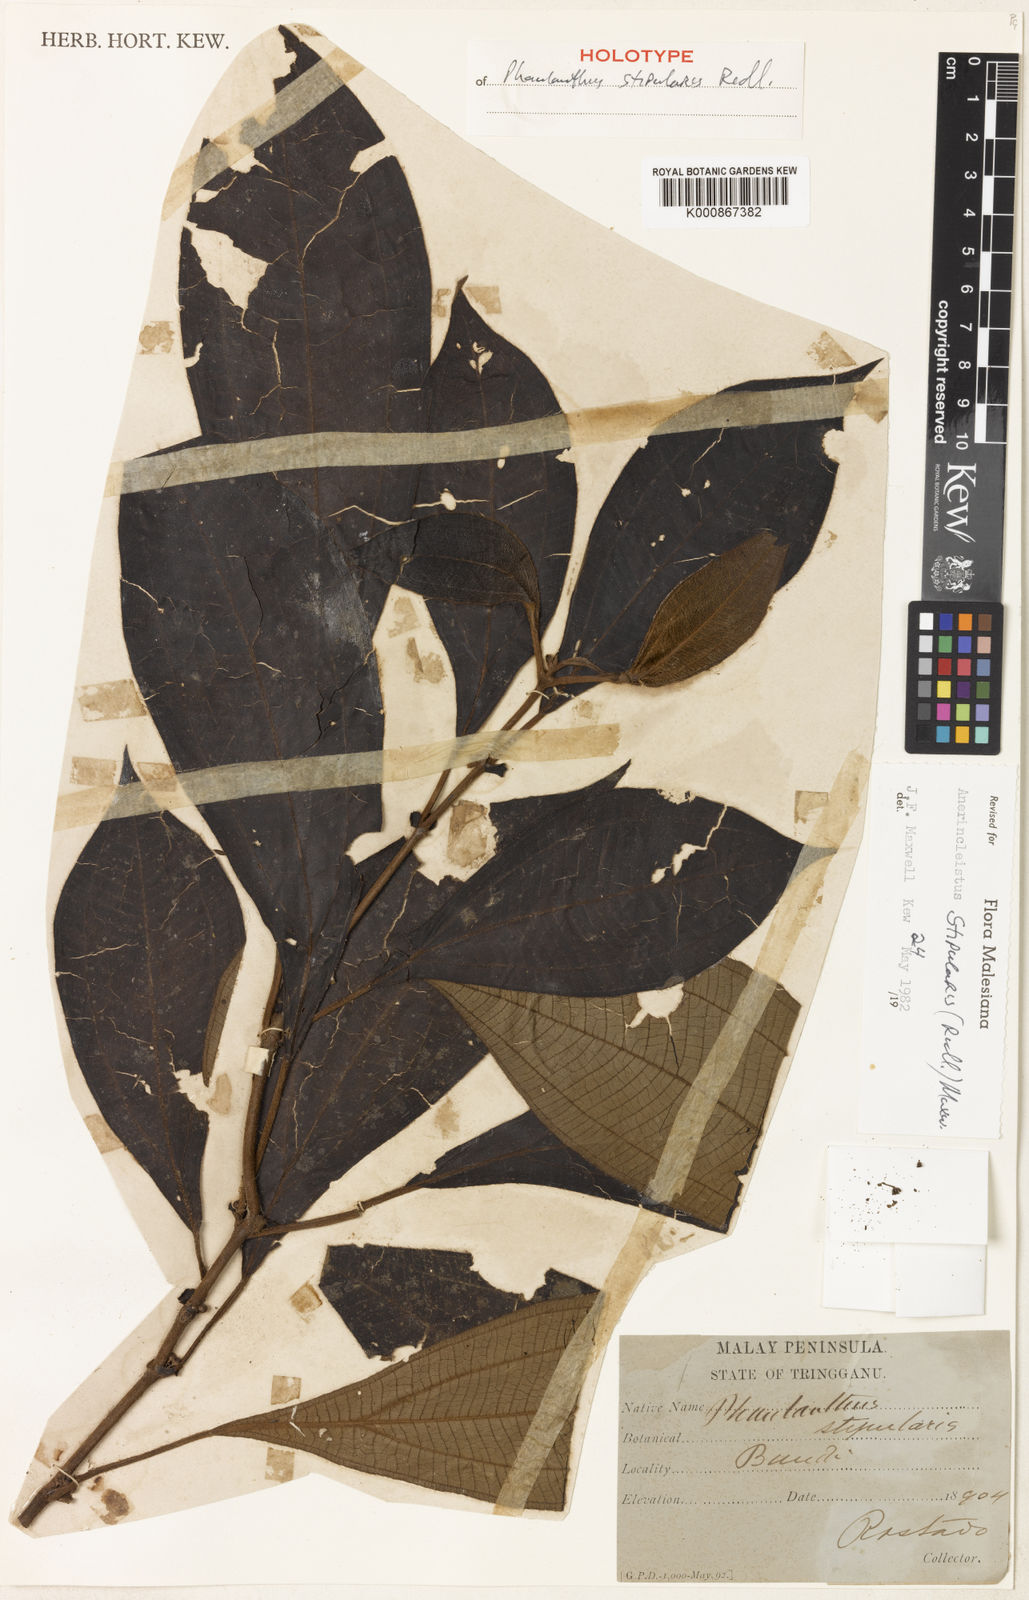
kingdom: Plantae
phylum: Tracheophyta
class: Magnoliopsida
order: Myrtales
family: Melastomataceae
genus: Anerincleistus
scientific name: Anerincleistus stipularis
